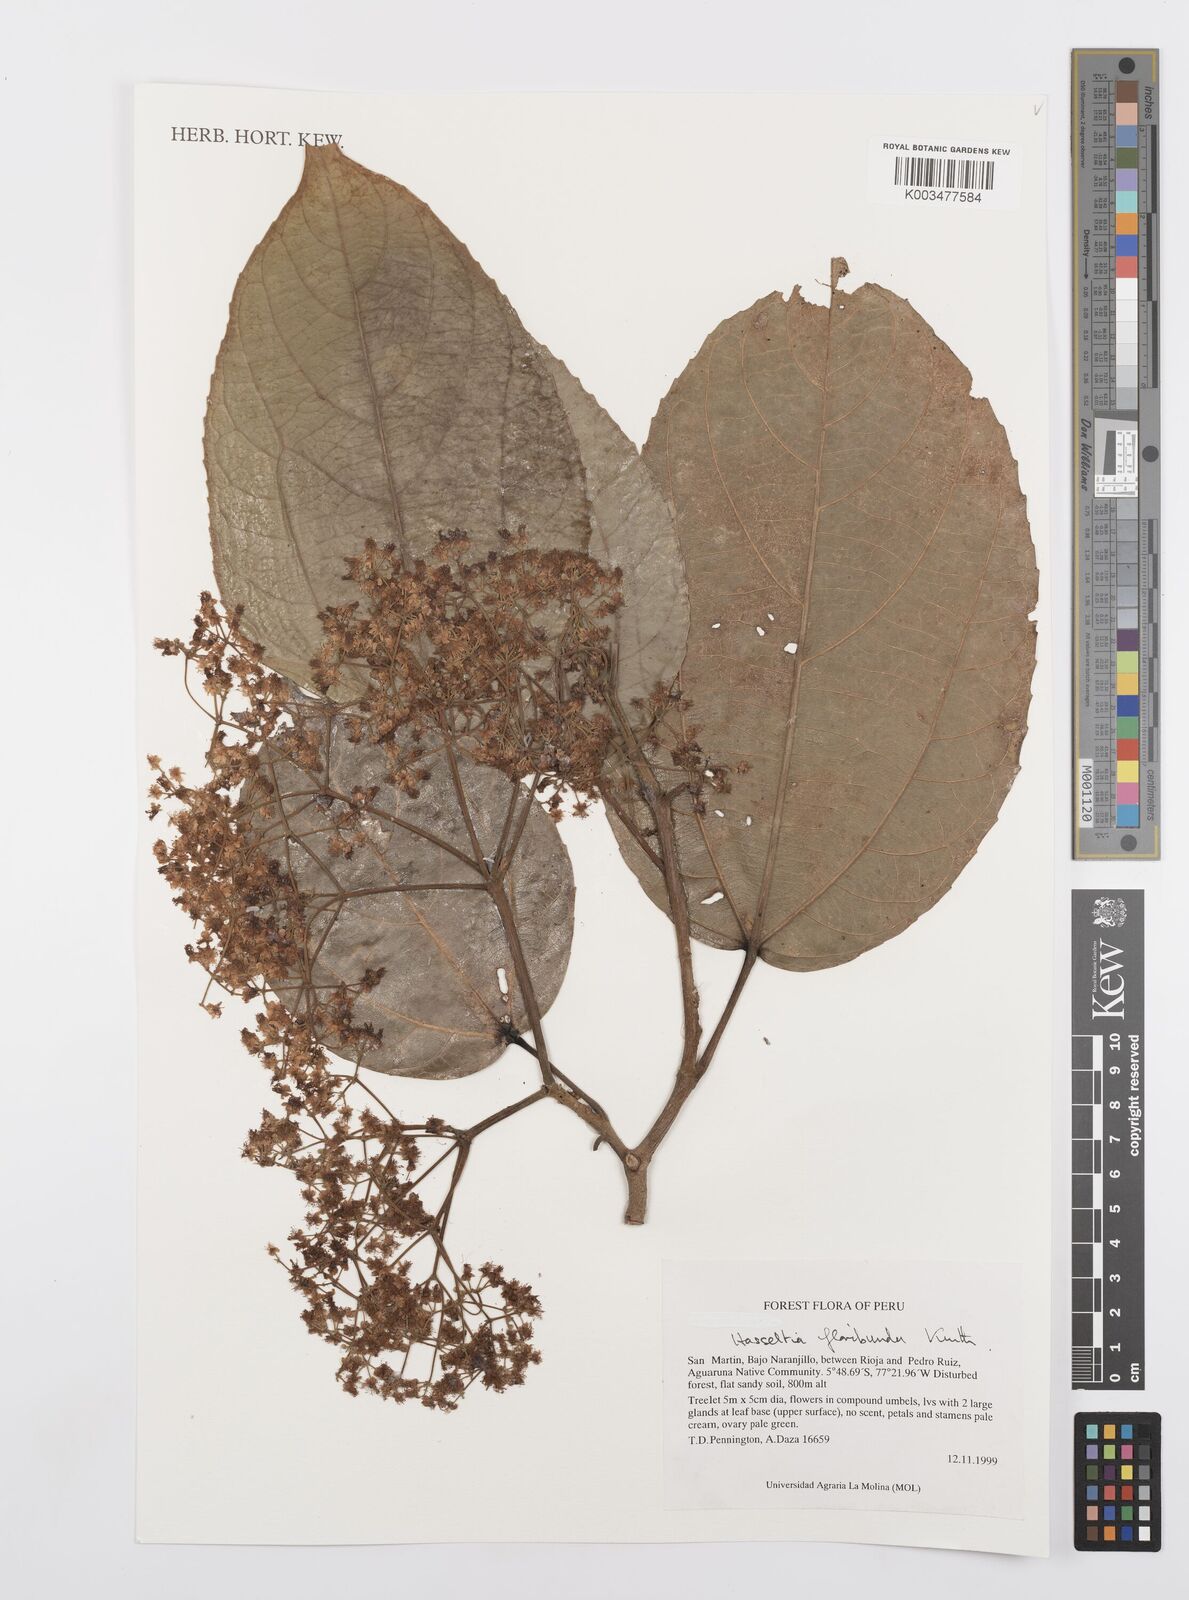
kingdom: Plantae
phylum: Tracheophyta
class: Magnoliopsida
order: Malpighiales
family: Salicaceae
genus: Hasseltia
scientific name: Hasseltia floribunda
